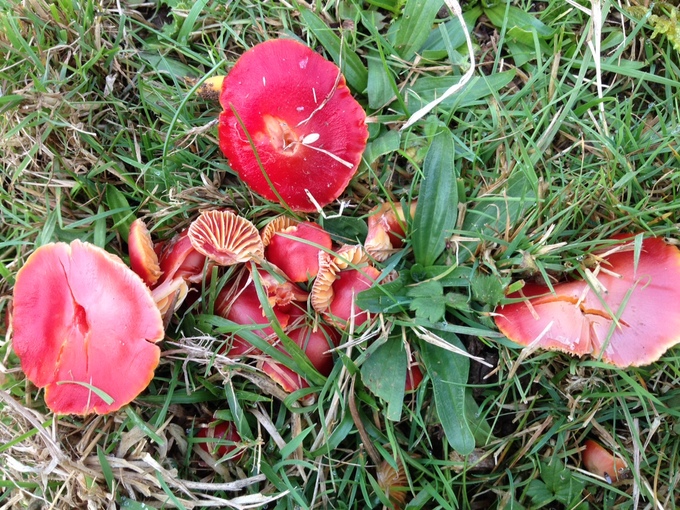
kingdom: Fungi
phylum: Basidiomycota
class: Agaricomycetes
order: Agaricales
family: Hygrophoraceae
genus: Hygrocybe
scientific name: Hygrocybe coccinea
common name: cinnober-vokshat
